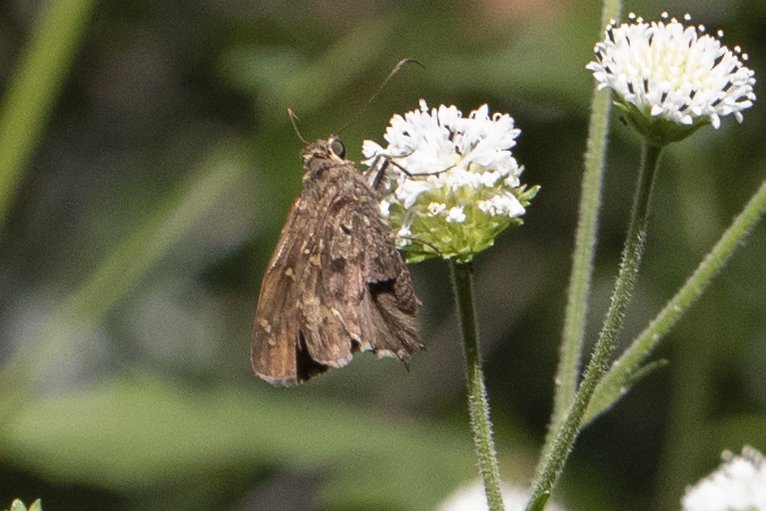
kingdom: Animalia
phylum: Arthropoda
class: Insecta
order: Lepidoptera
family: Hesperiidae
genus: Urbanus
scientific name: Urbanus dorantes
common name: Dorantes Longtail
